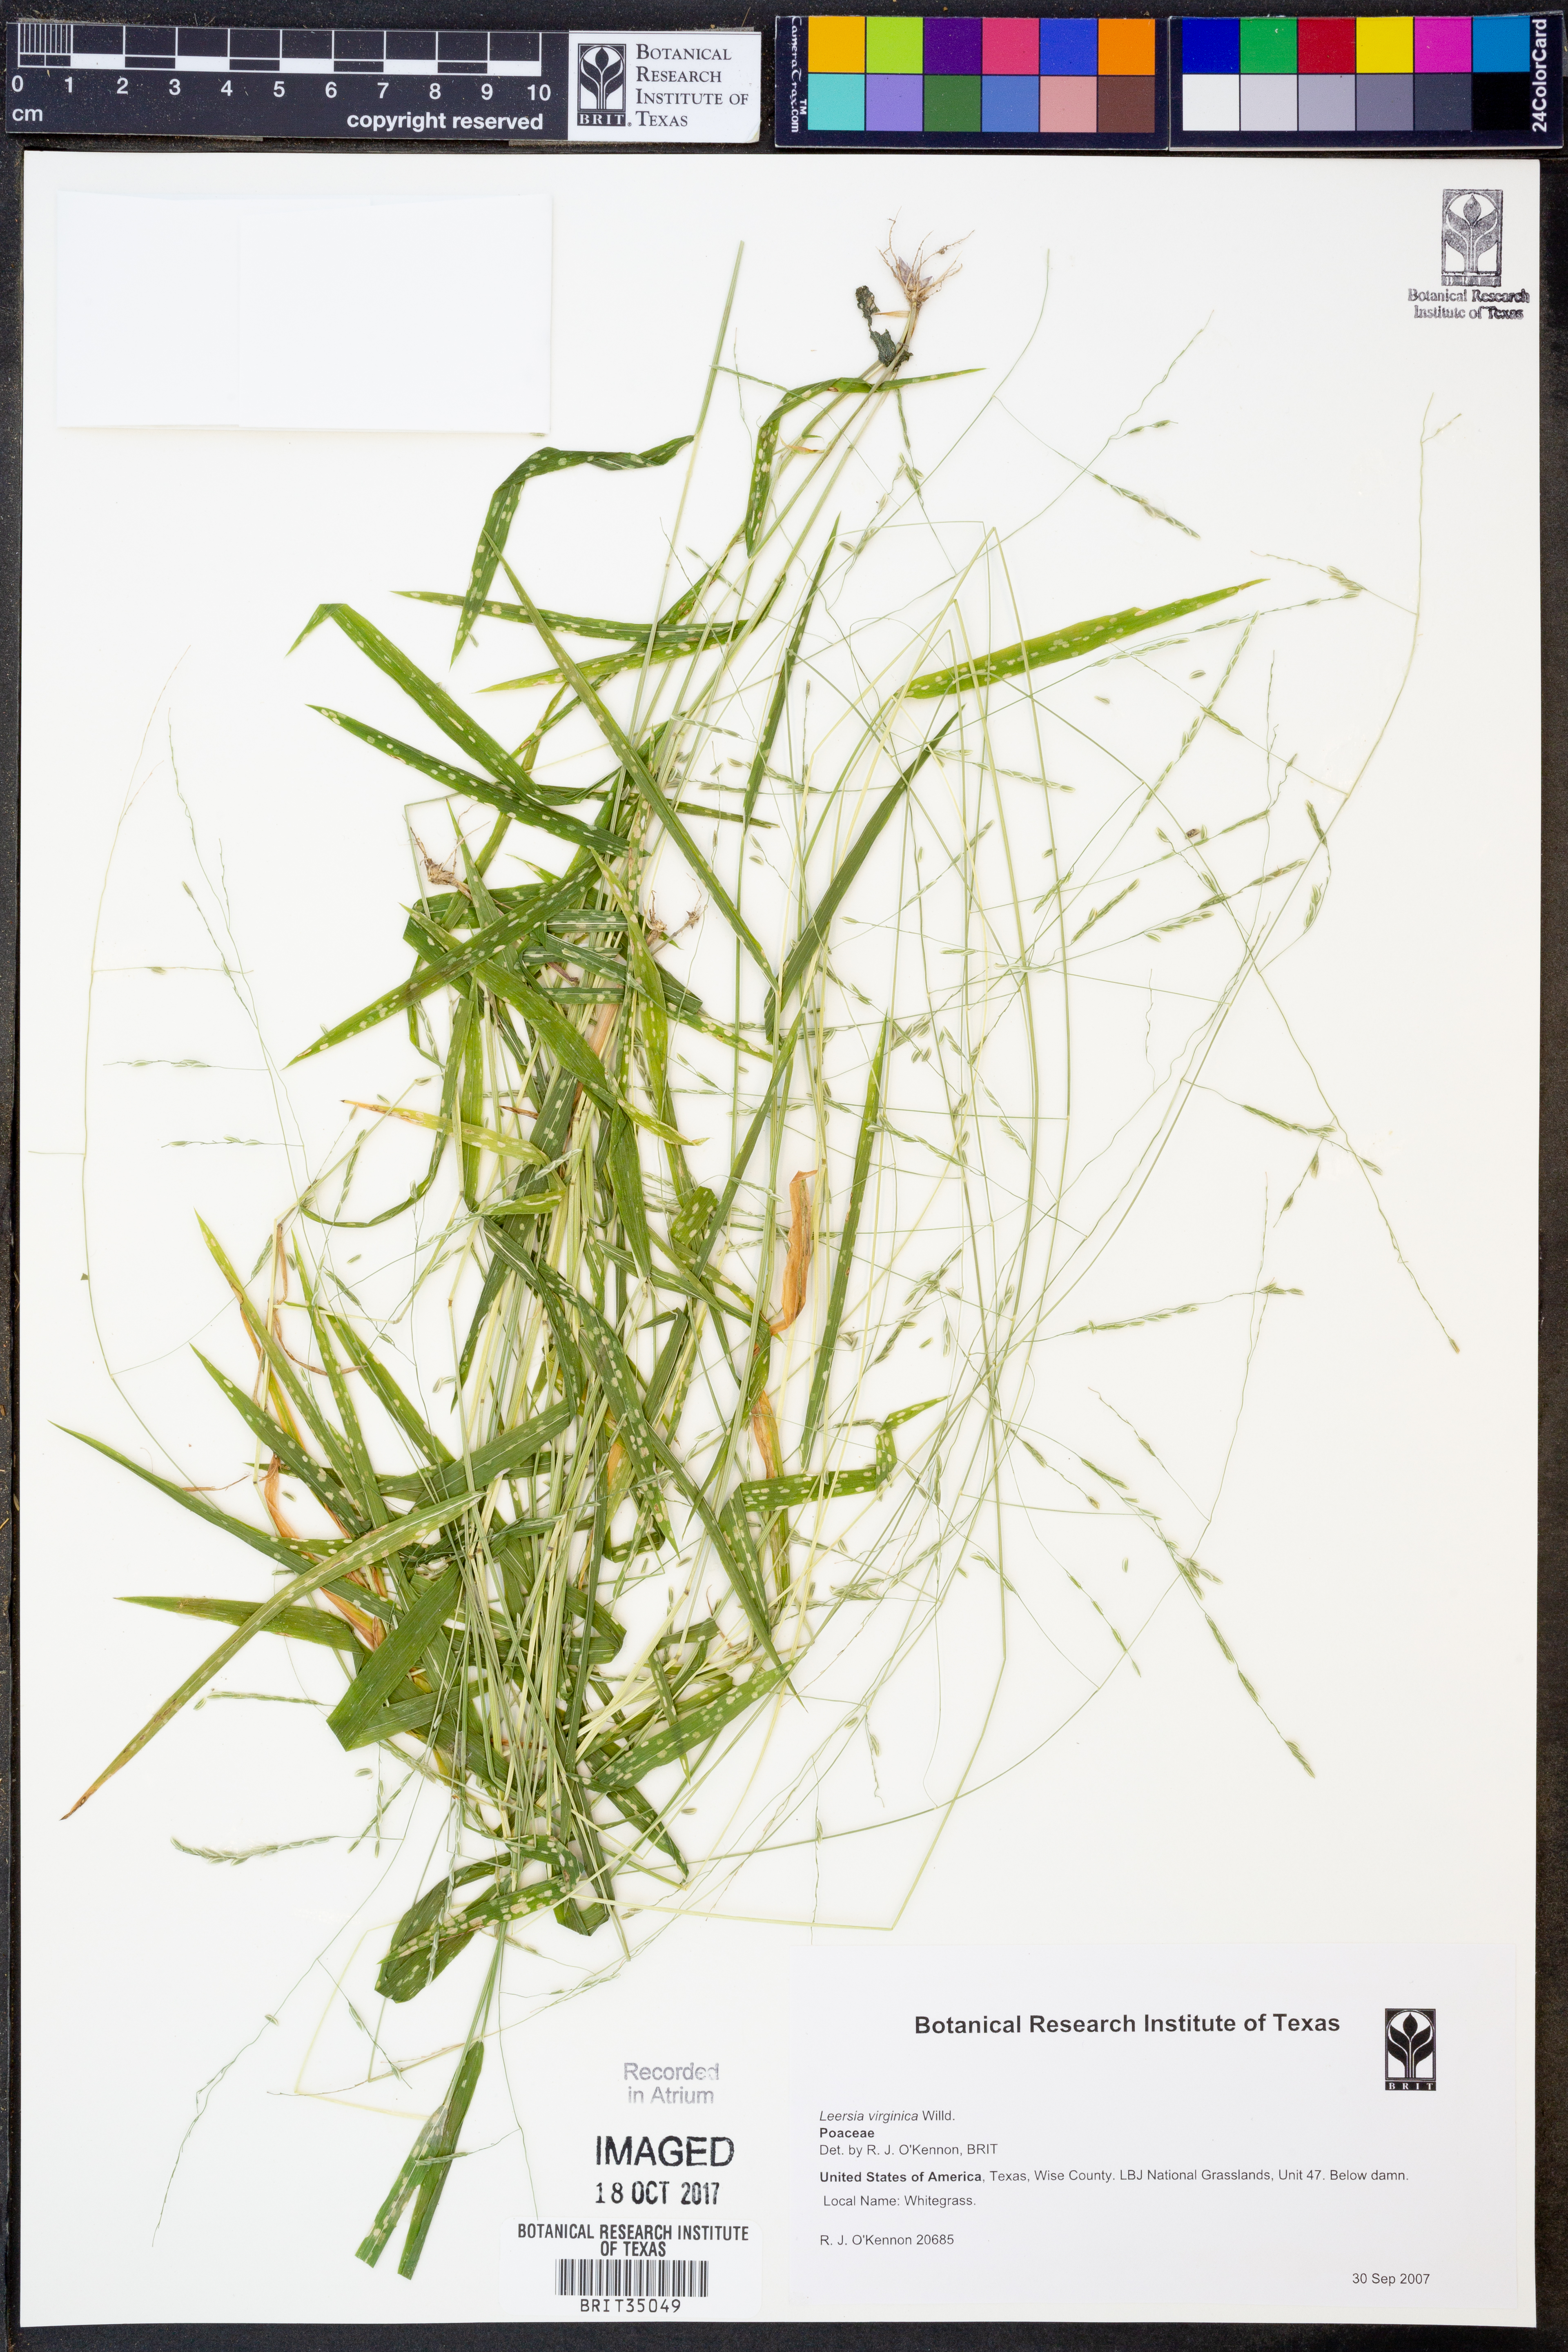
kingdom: Plantae
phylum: Tracheophyta
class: Liliopsida
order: Poales
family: Poaceae
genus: Leersia
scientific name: Leersia virginica
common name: White cutgrass
